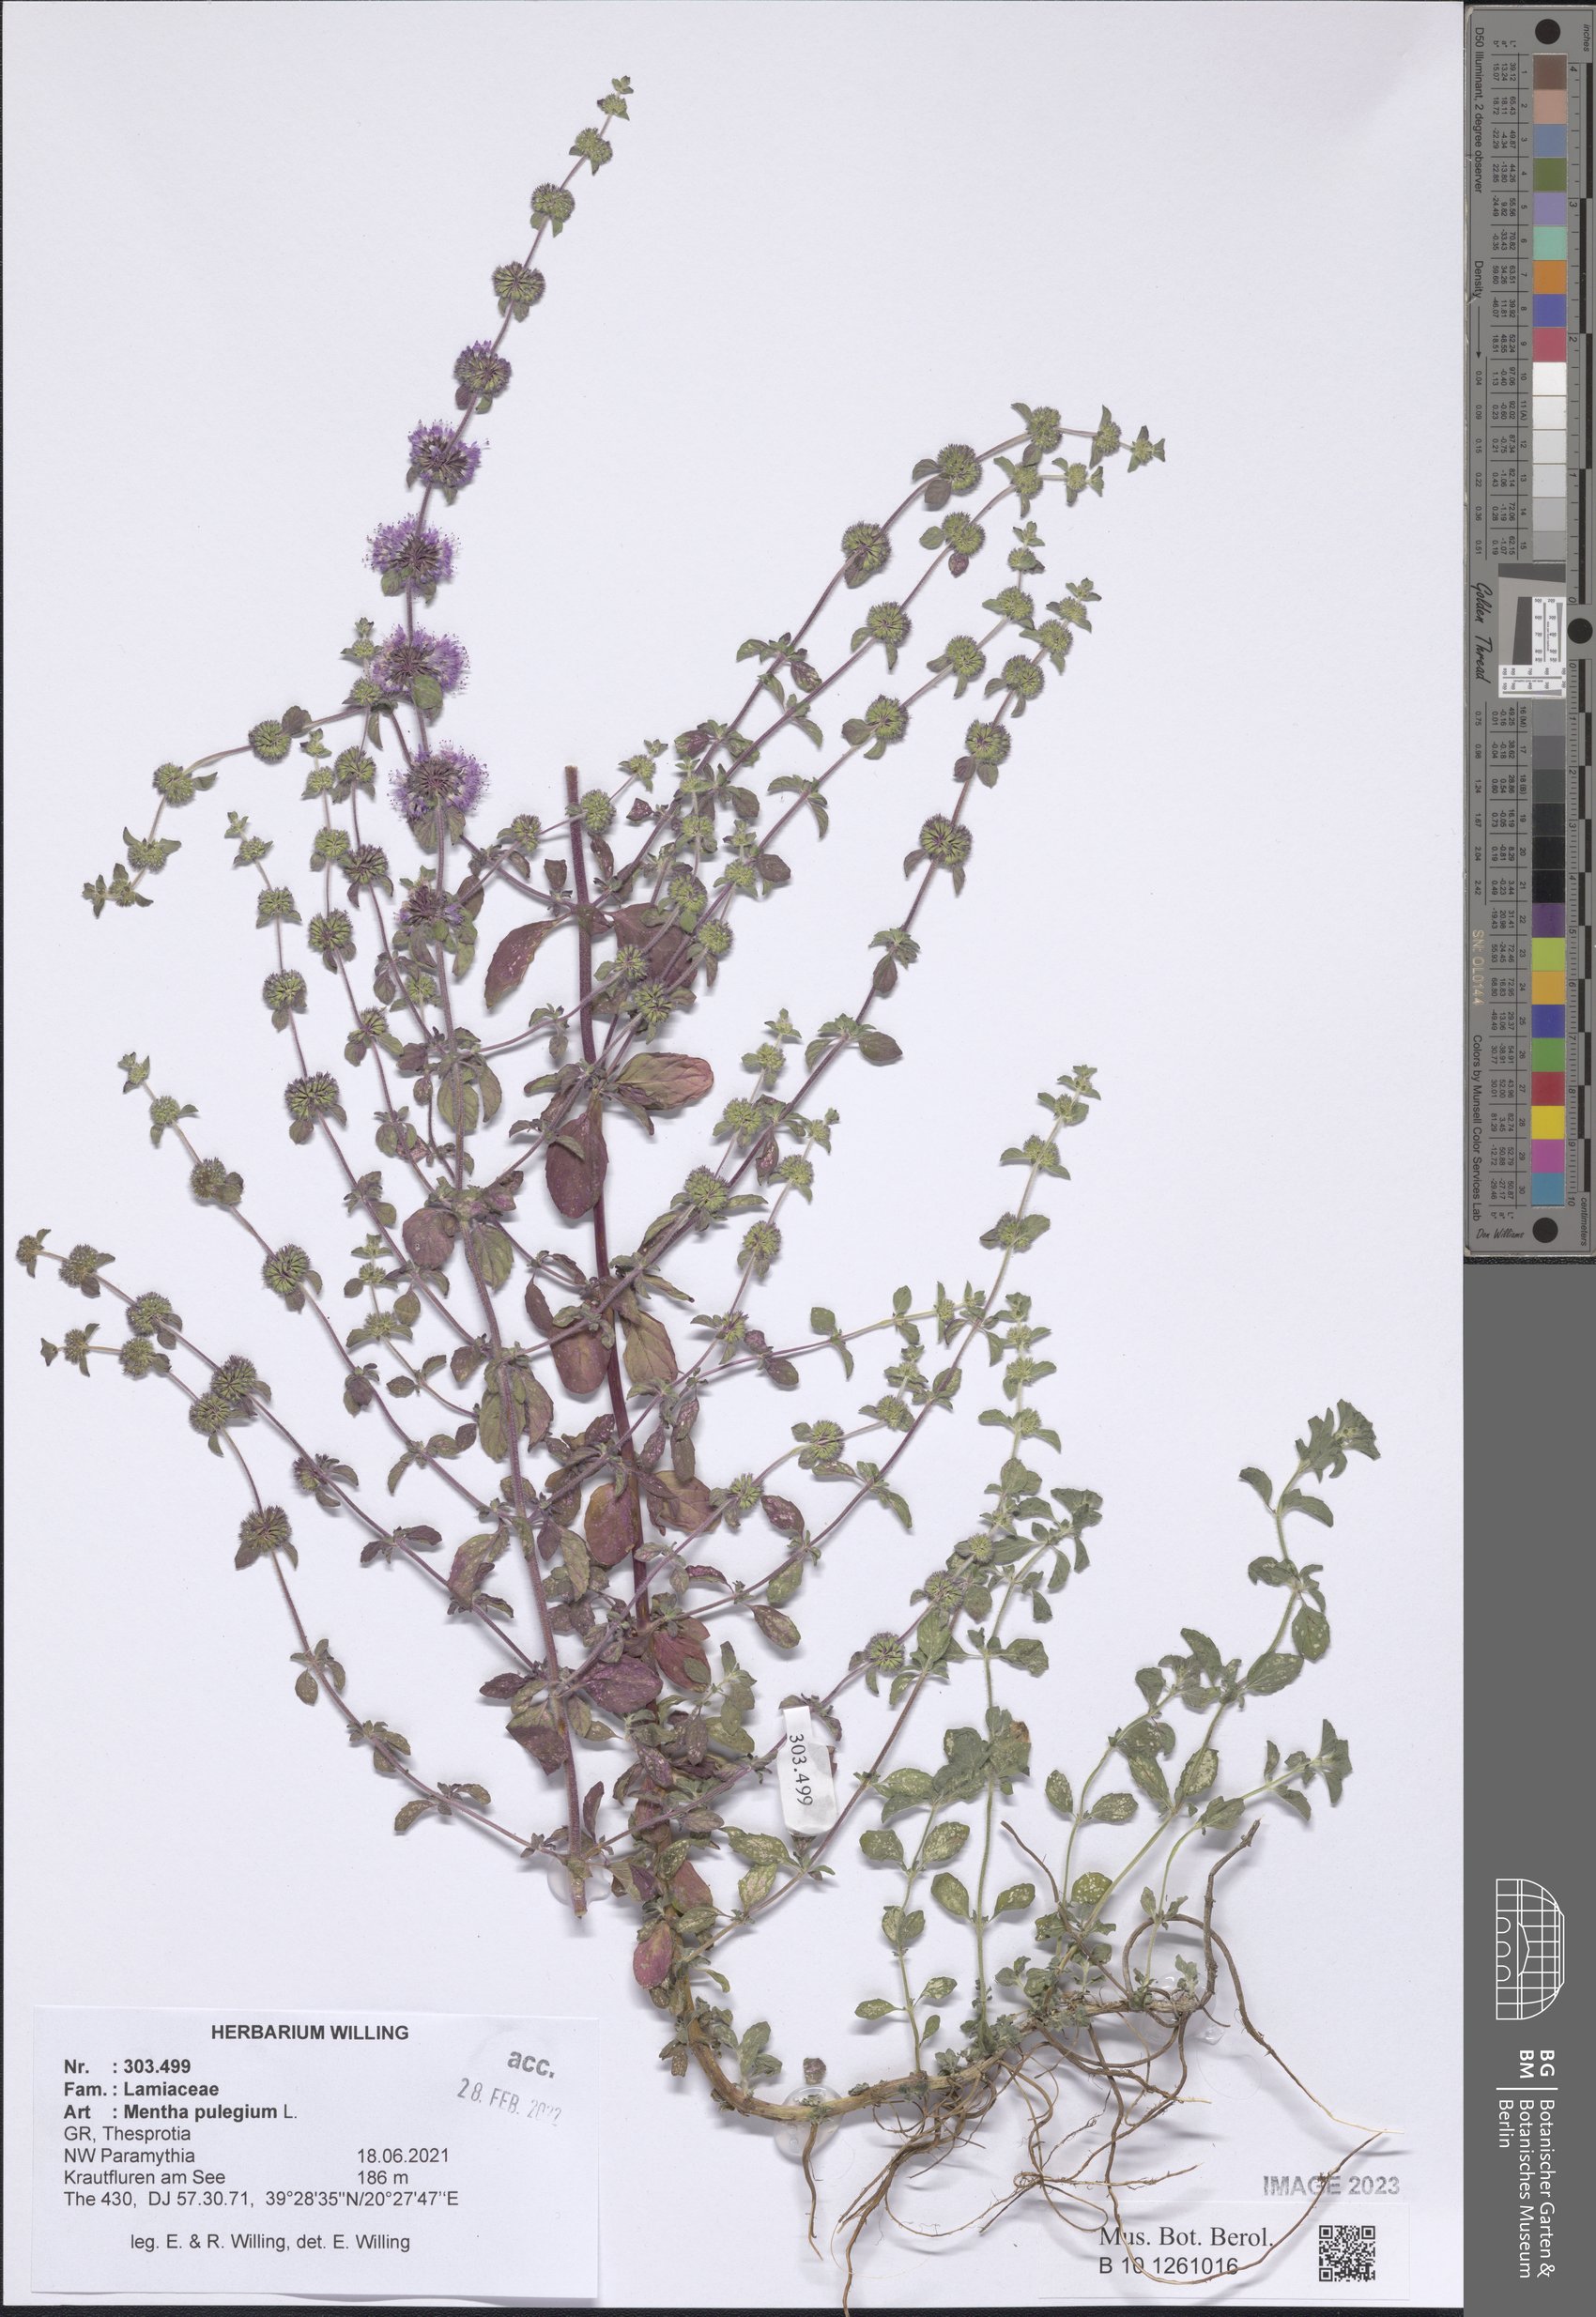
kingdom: Plantae
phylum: Tracheophyta
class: Magnoliopsida
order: Lamiales
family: Lamiaceae
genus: Mentha
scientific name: Mentha pulegium
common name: Pennyroyal
